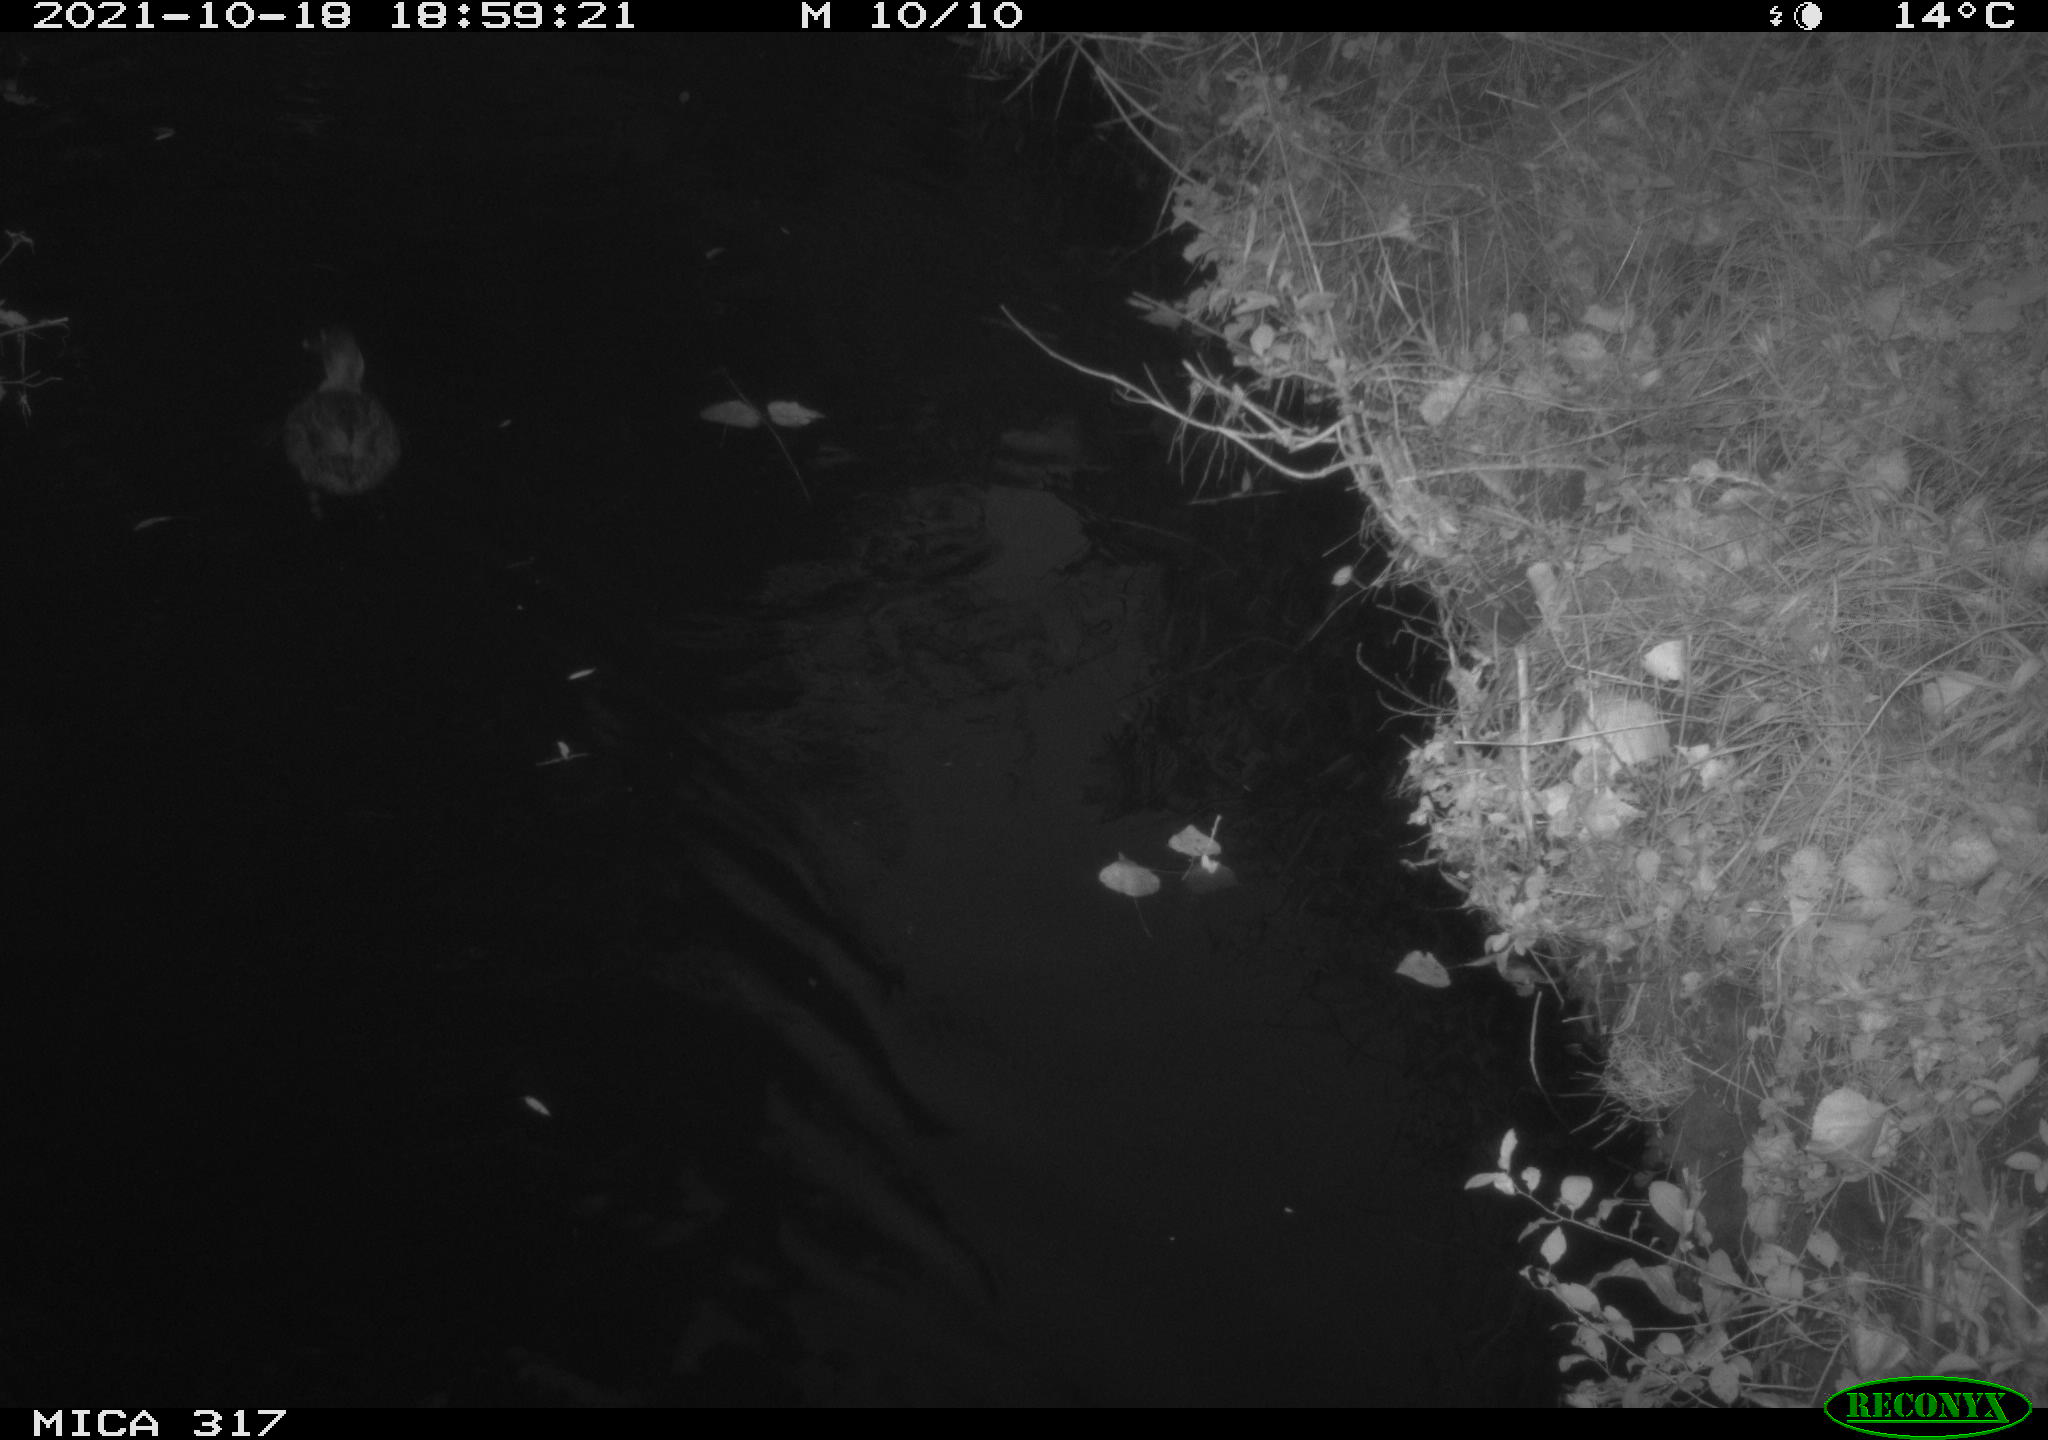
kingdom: Animalia
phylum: Chordata
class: Aves
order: Anseriformes
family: Anatidae
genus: Anas
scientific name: Anas platyrhynchos
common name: Mallard
